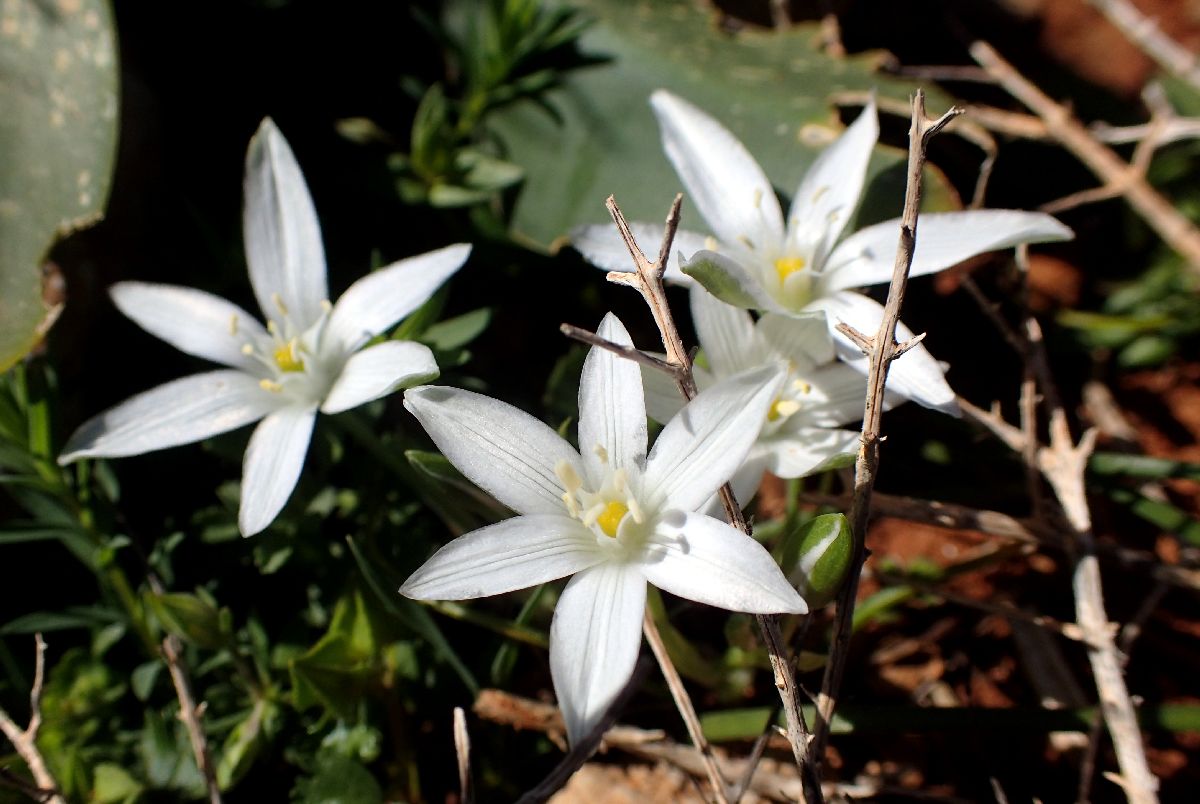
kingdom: Plantae
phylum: Tracheophyta
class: Liliopsida
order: Asparagales
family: Asparagaceae
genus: Ornithogalum
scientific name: Ornithogalum divergens
